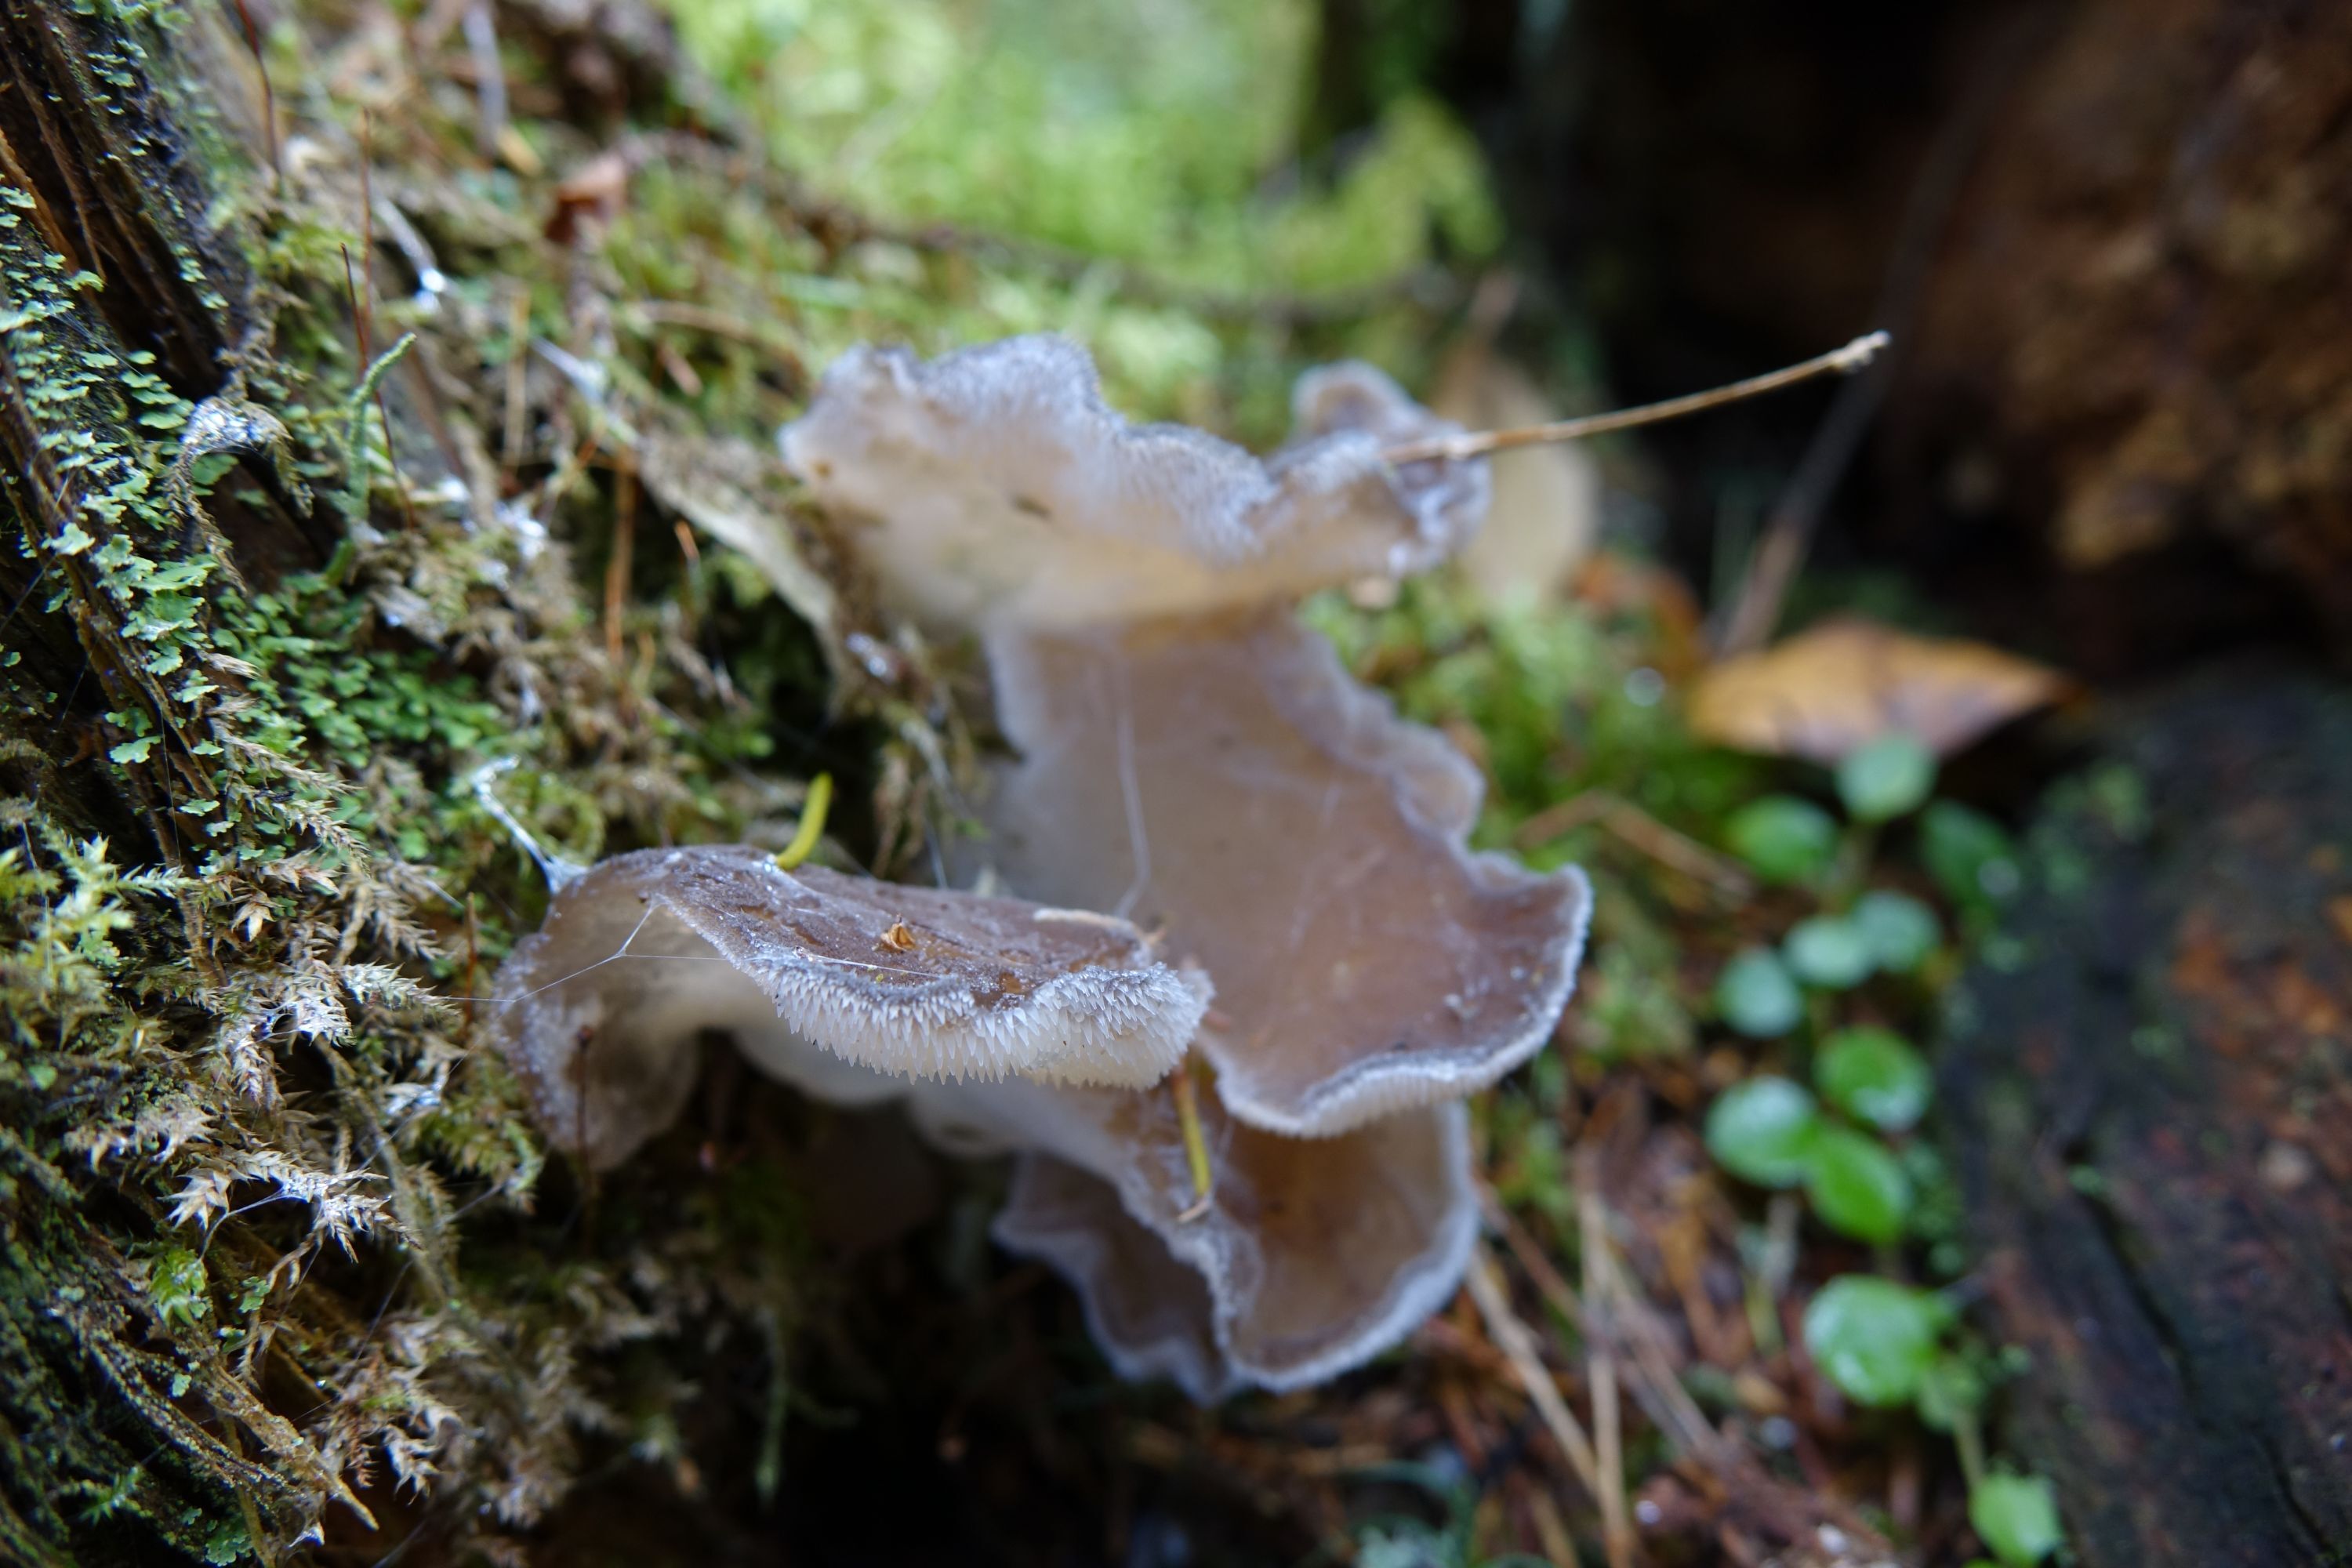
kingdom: Fungi
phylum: Basidiomycota
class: Agaricomycetes
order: Auriculariales
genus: Pseudohydnum
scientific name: Pseudohydnum gelatinosum
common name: Jelly tongue
